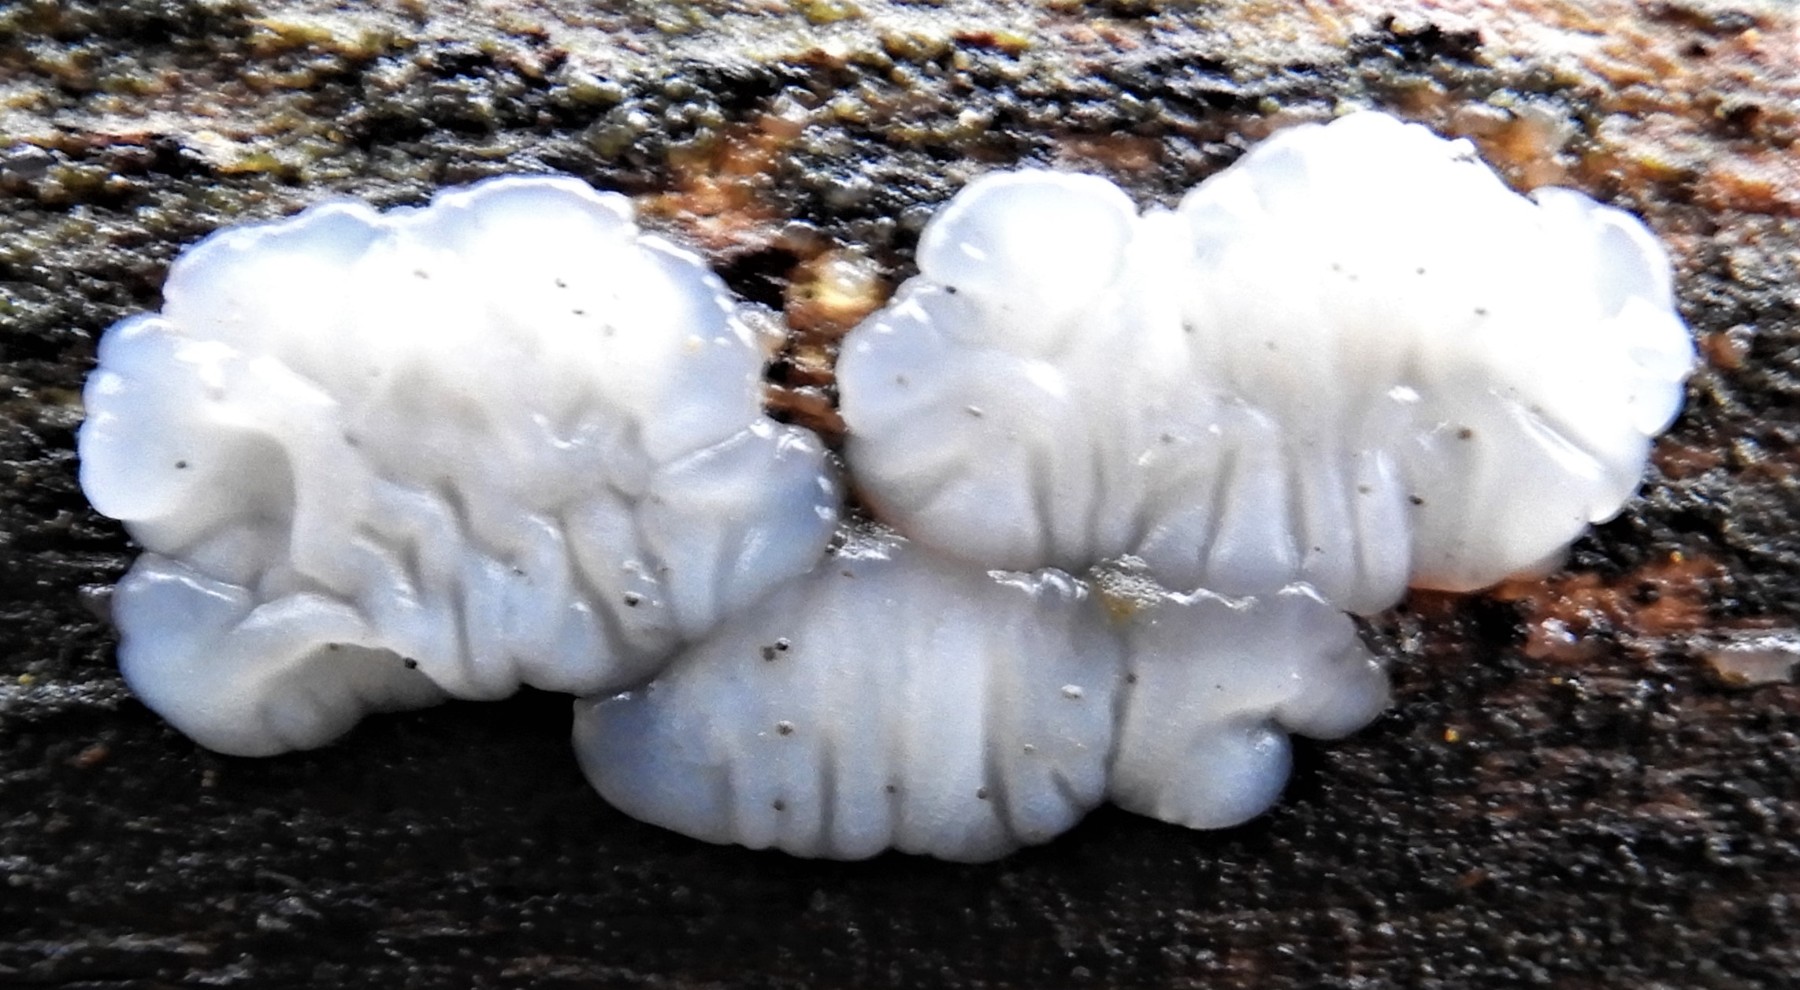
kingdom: Fungi
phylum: Basidiomycota
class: Agaricomycetes
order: Auriculariales
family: Auriculariaceae
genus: Exidia
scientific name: Exidia thuretiana
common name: hvidlig bævretop
